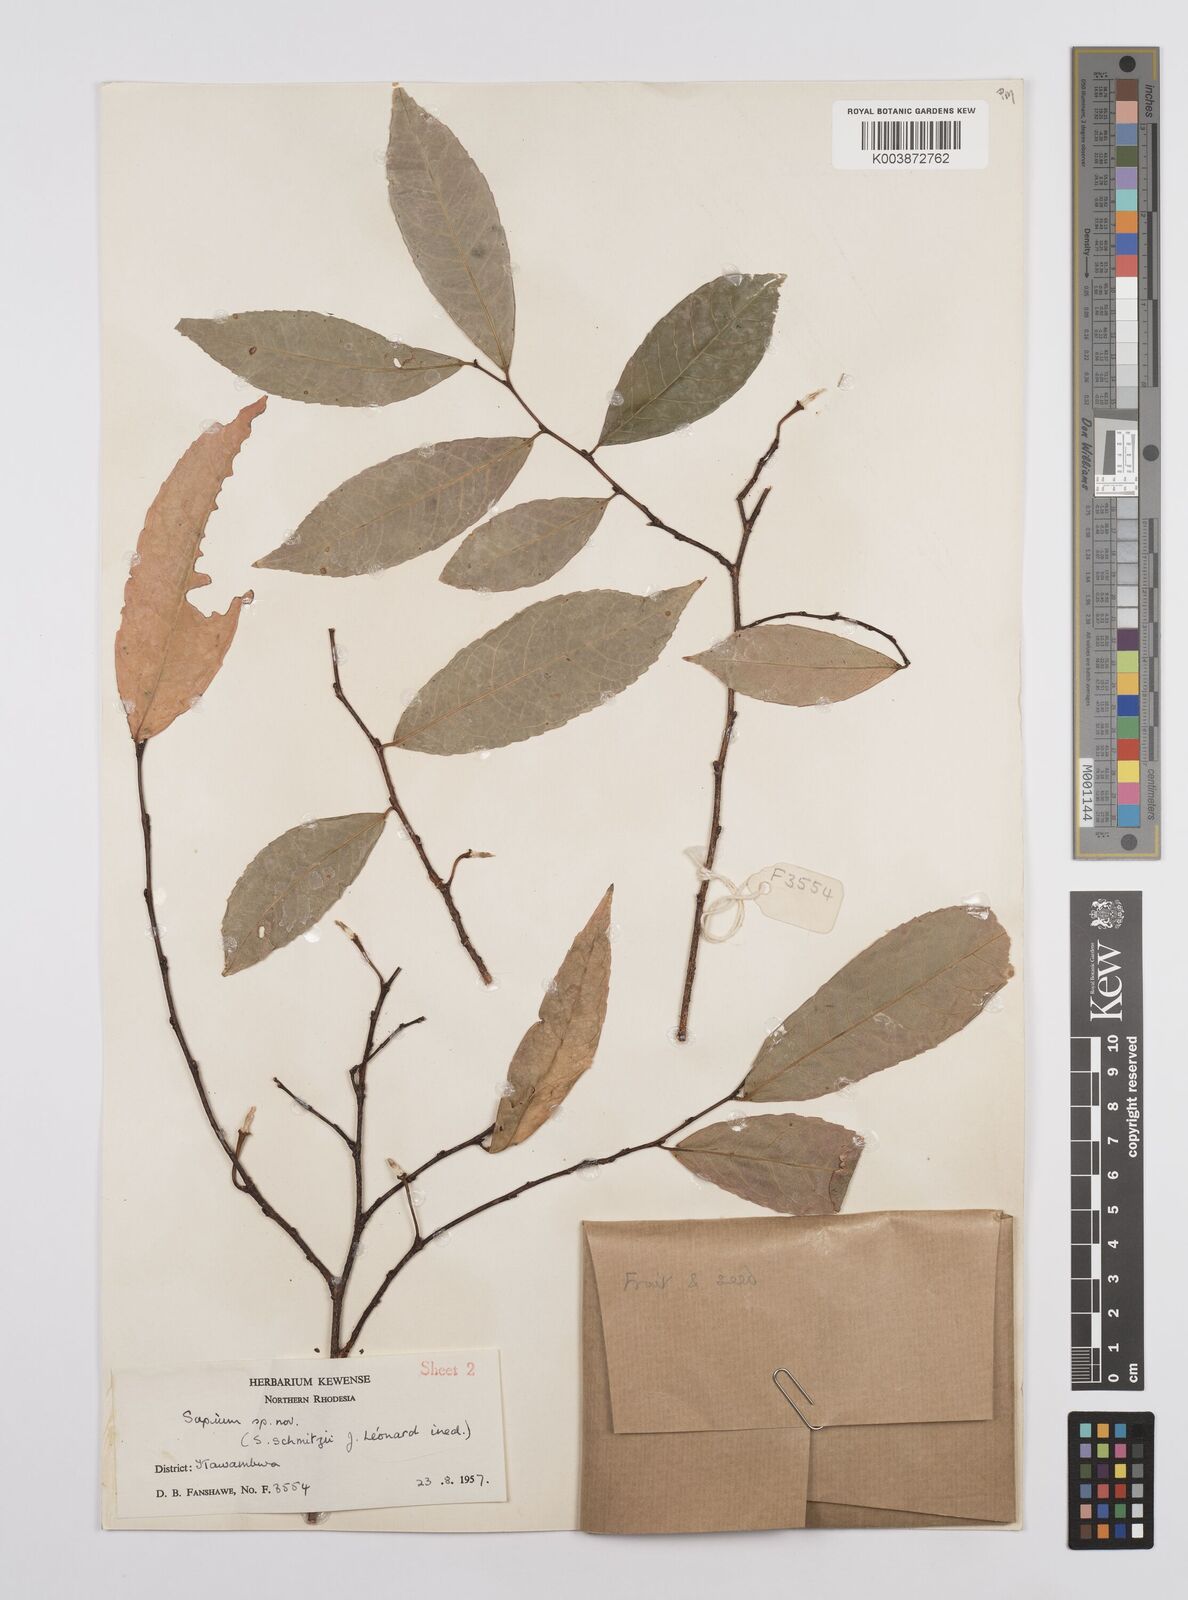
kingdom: Plantae
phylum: Tracheophyta
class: Magnoliopsida
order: Malpighiales
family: Euphorbiaceae
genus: Sclerocroton
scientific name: Sclerocroton schmitzii
